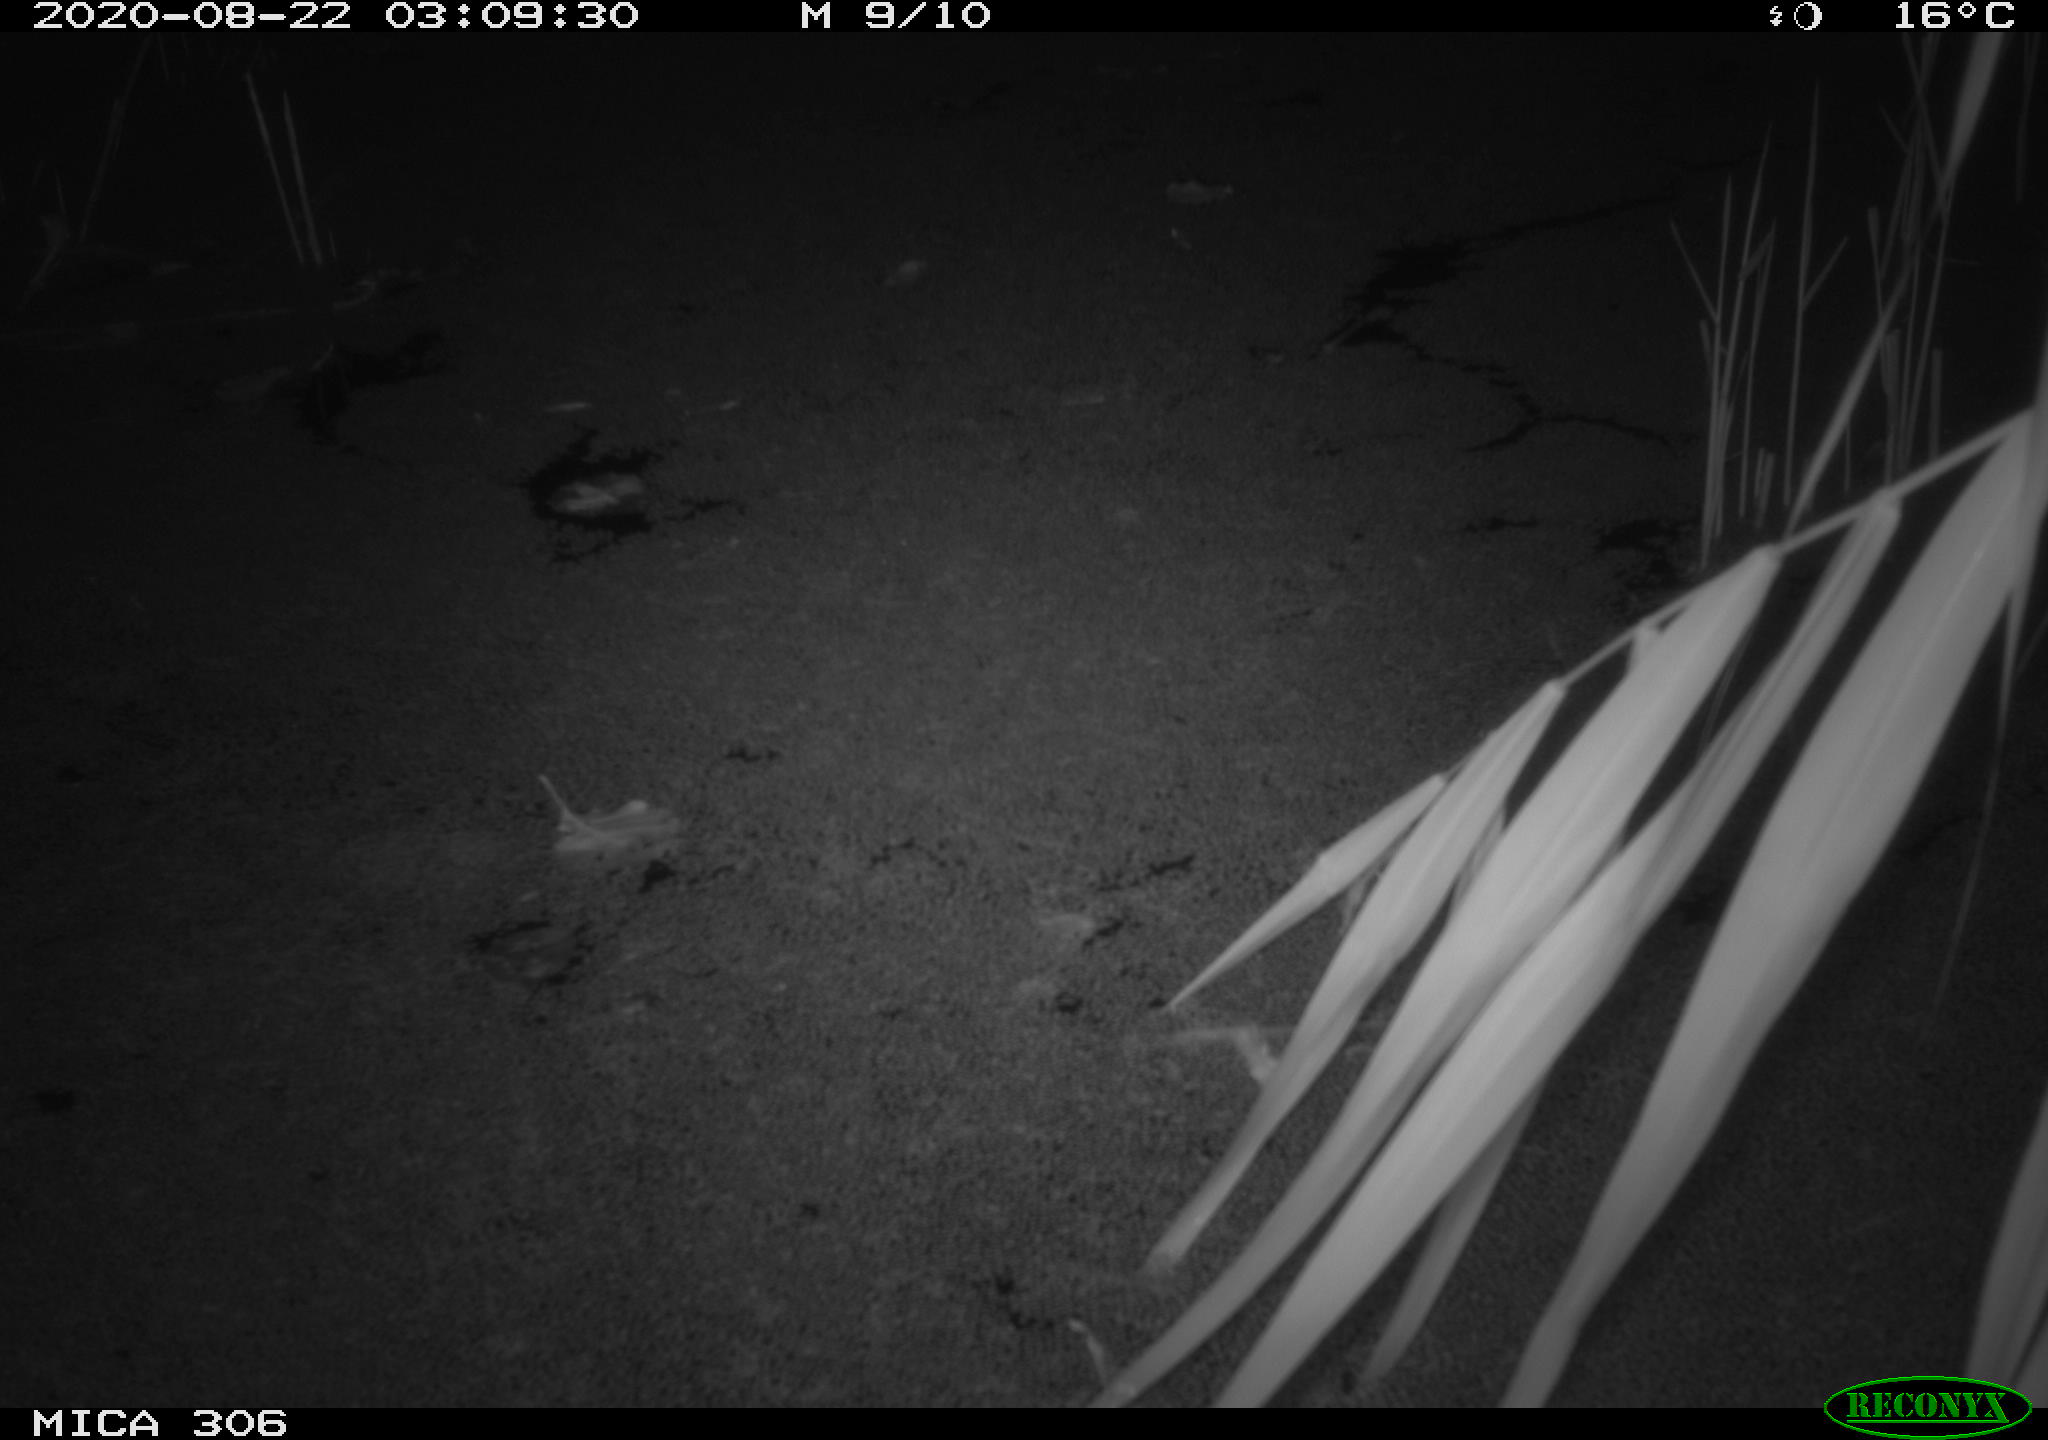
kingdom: Animalia
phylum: Chordata
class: Mammalia
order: Rodentia
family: Muridae
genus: Rattus
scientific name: Rattus norvegicus
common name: Brown rat
